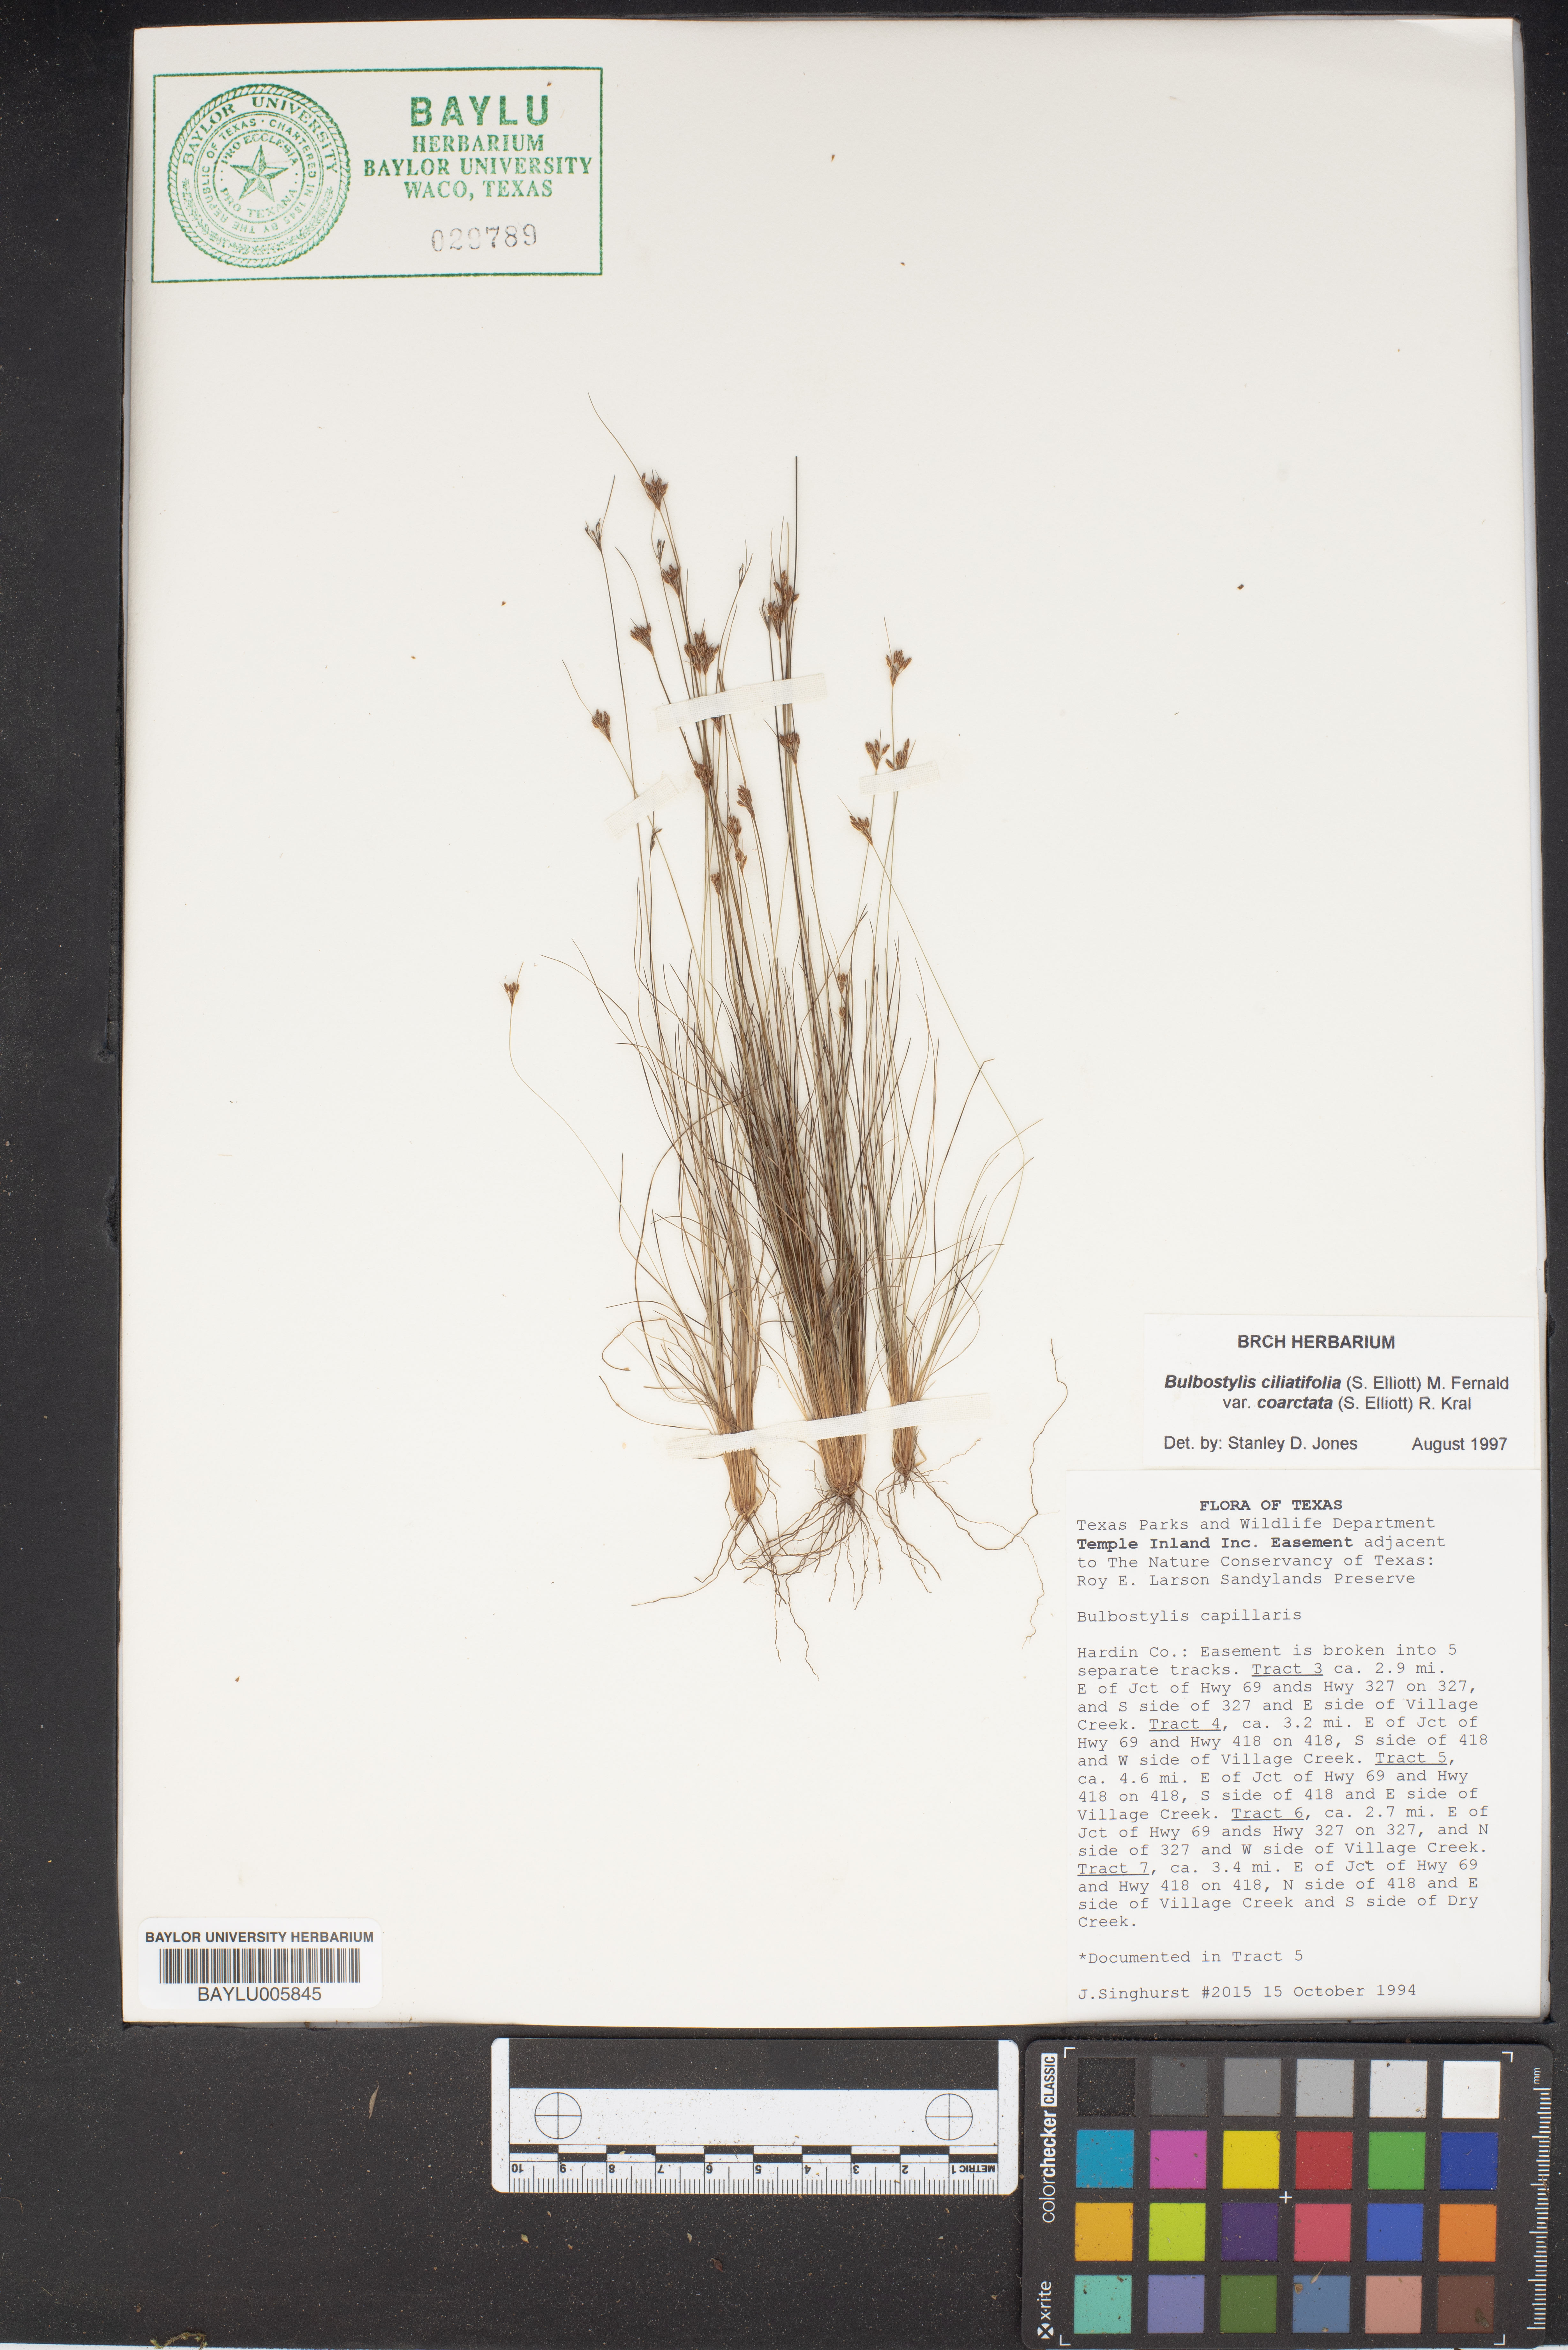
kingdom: Plantae
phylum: Tracheophyta
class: Liliopsida
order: Poales
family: Cyperaceae
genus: Bulbostylis
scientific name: Bulbostylis capillaris
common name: Densetuft hairsedge
